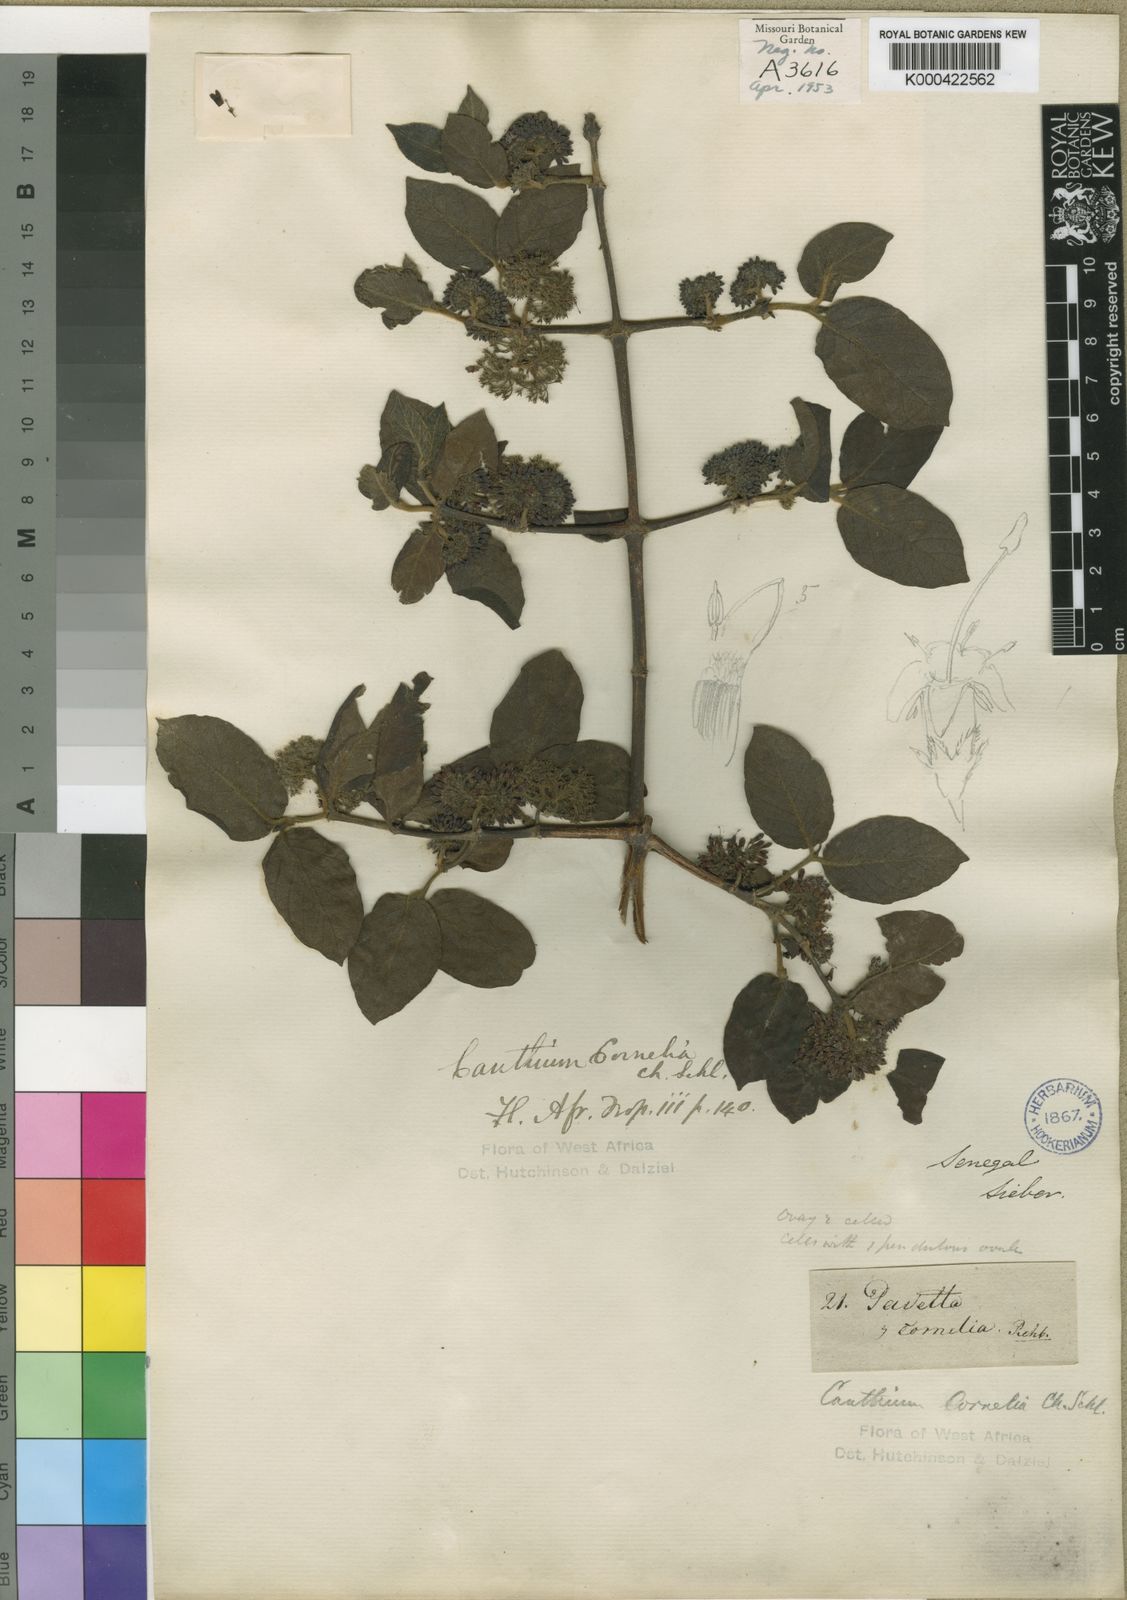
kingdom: Plantae
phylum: Tracheophyta
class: Magnoliopsida
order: Gentianales
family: Rubiaceae
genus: Keetia
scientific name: Keetia cornelia
